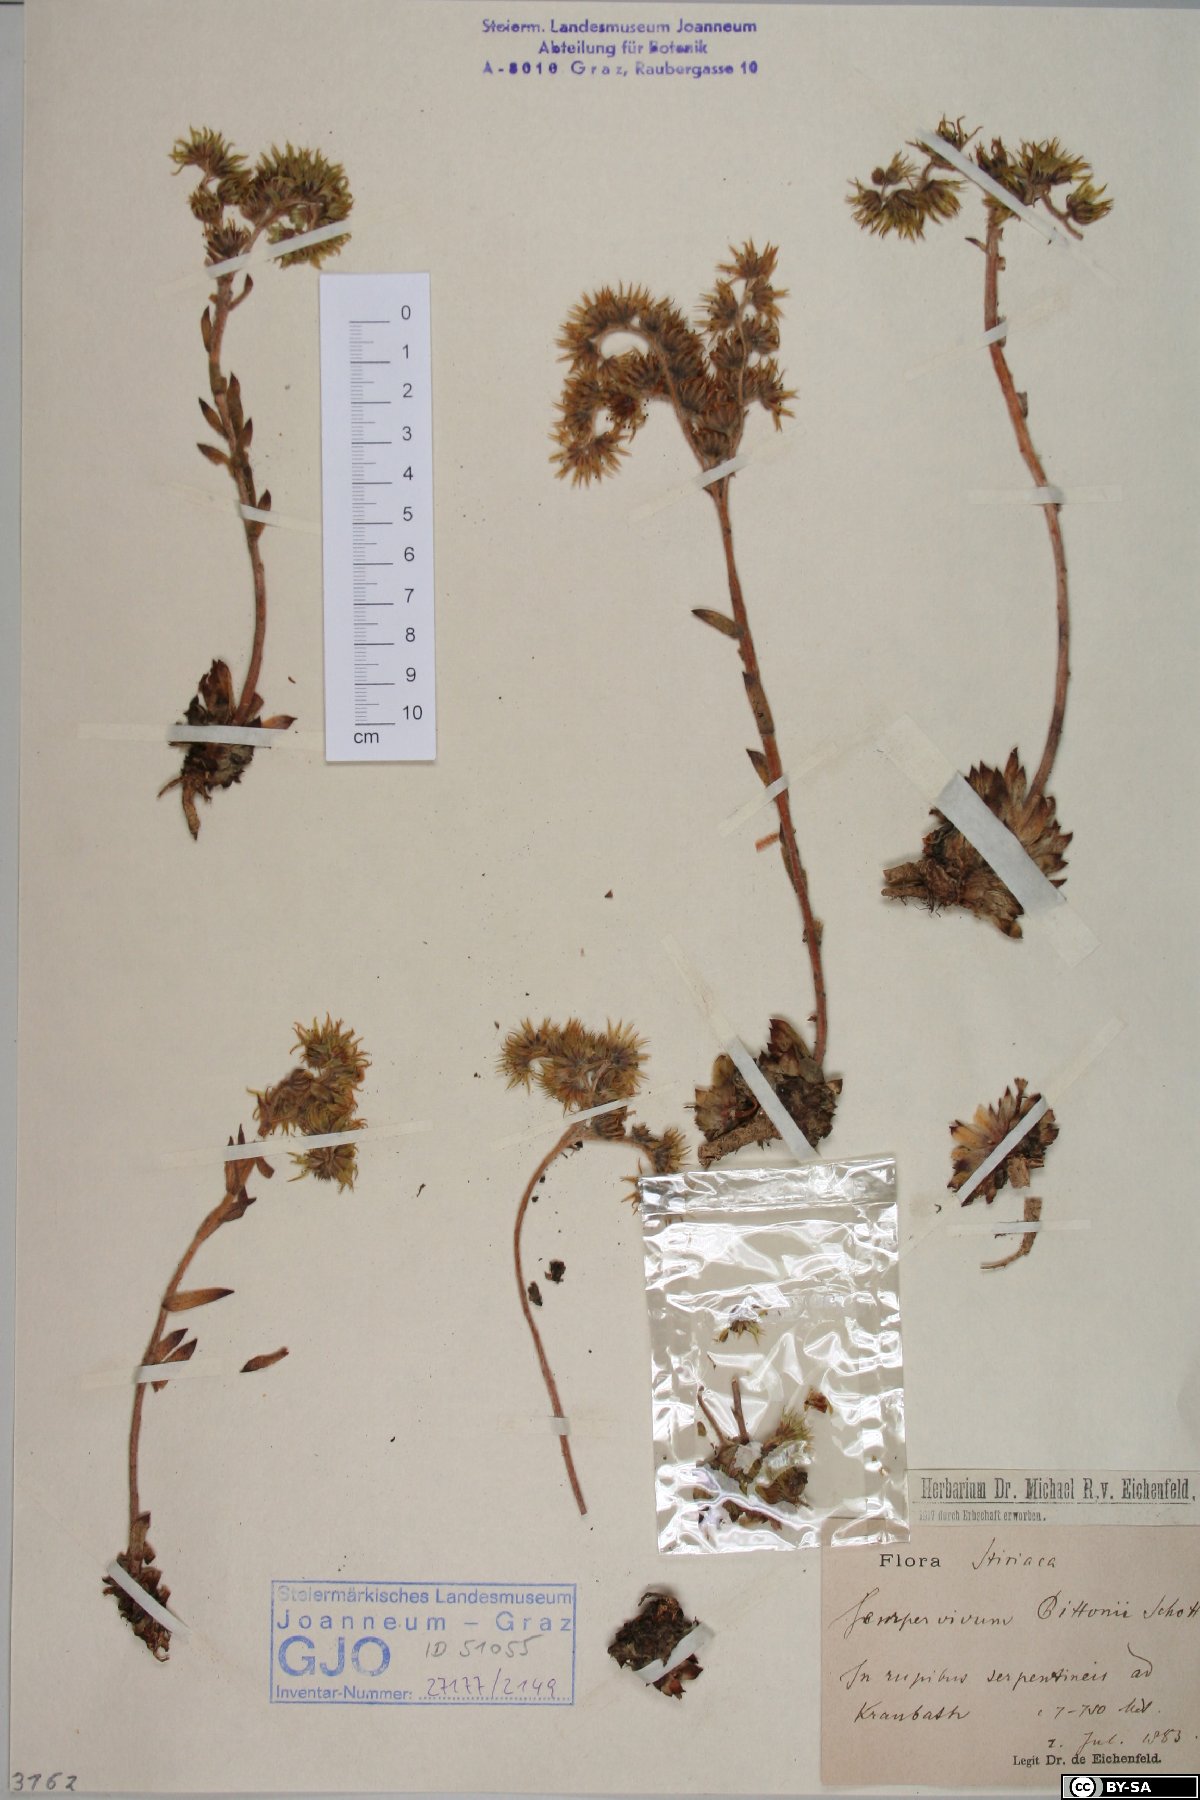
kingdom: Plantae
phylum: Tracheophyta
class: Magnoliopsida
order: Saxifragales
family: Crassulaceae
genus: Sempervivum
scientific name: Sempervivum pittonii
